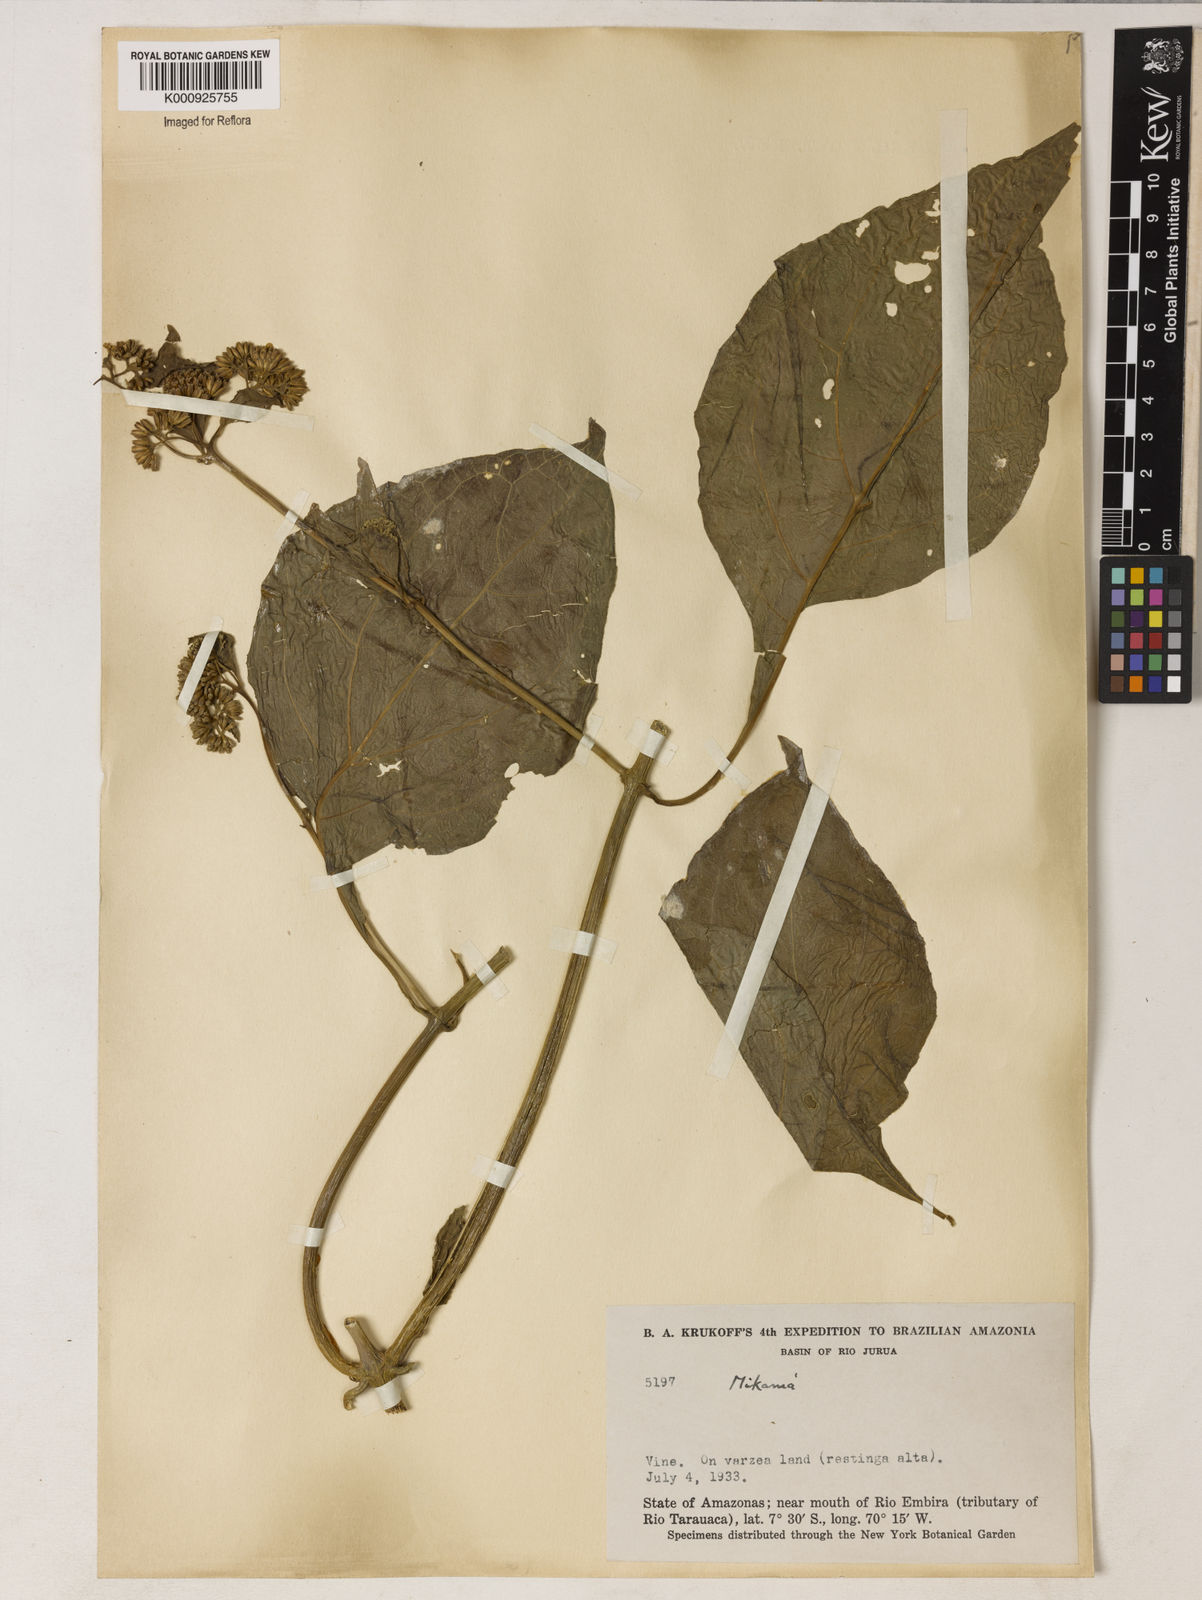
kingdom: Plantae
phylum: Tracheophyta
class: Magnoliopsida
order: Asterales
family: Asteraceae
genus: Mikania
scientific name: Mikania guaco
